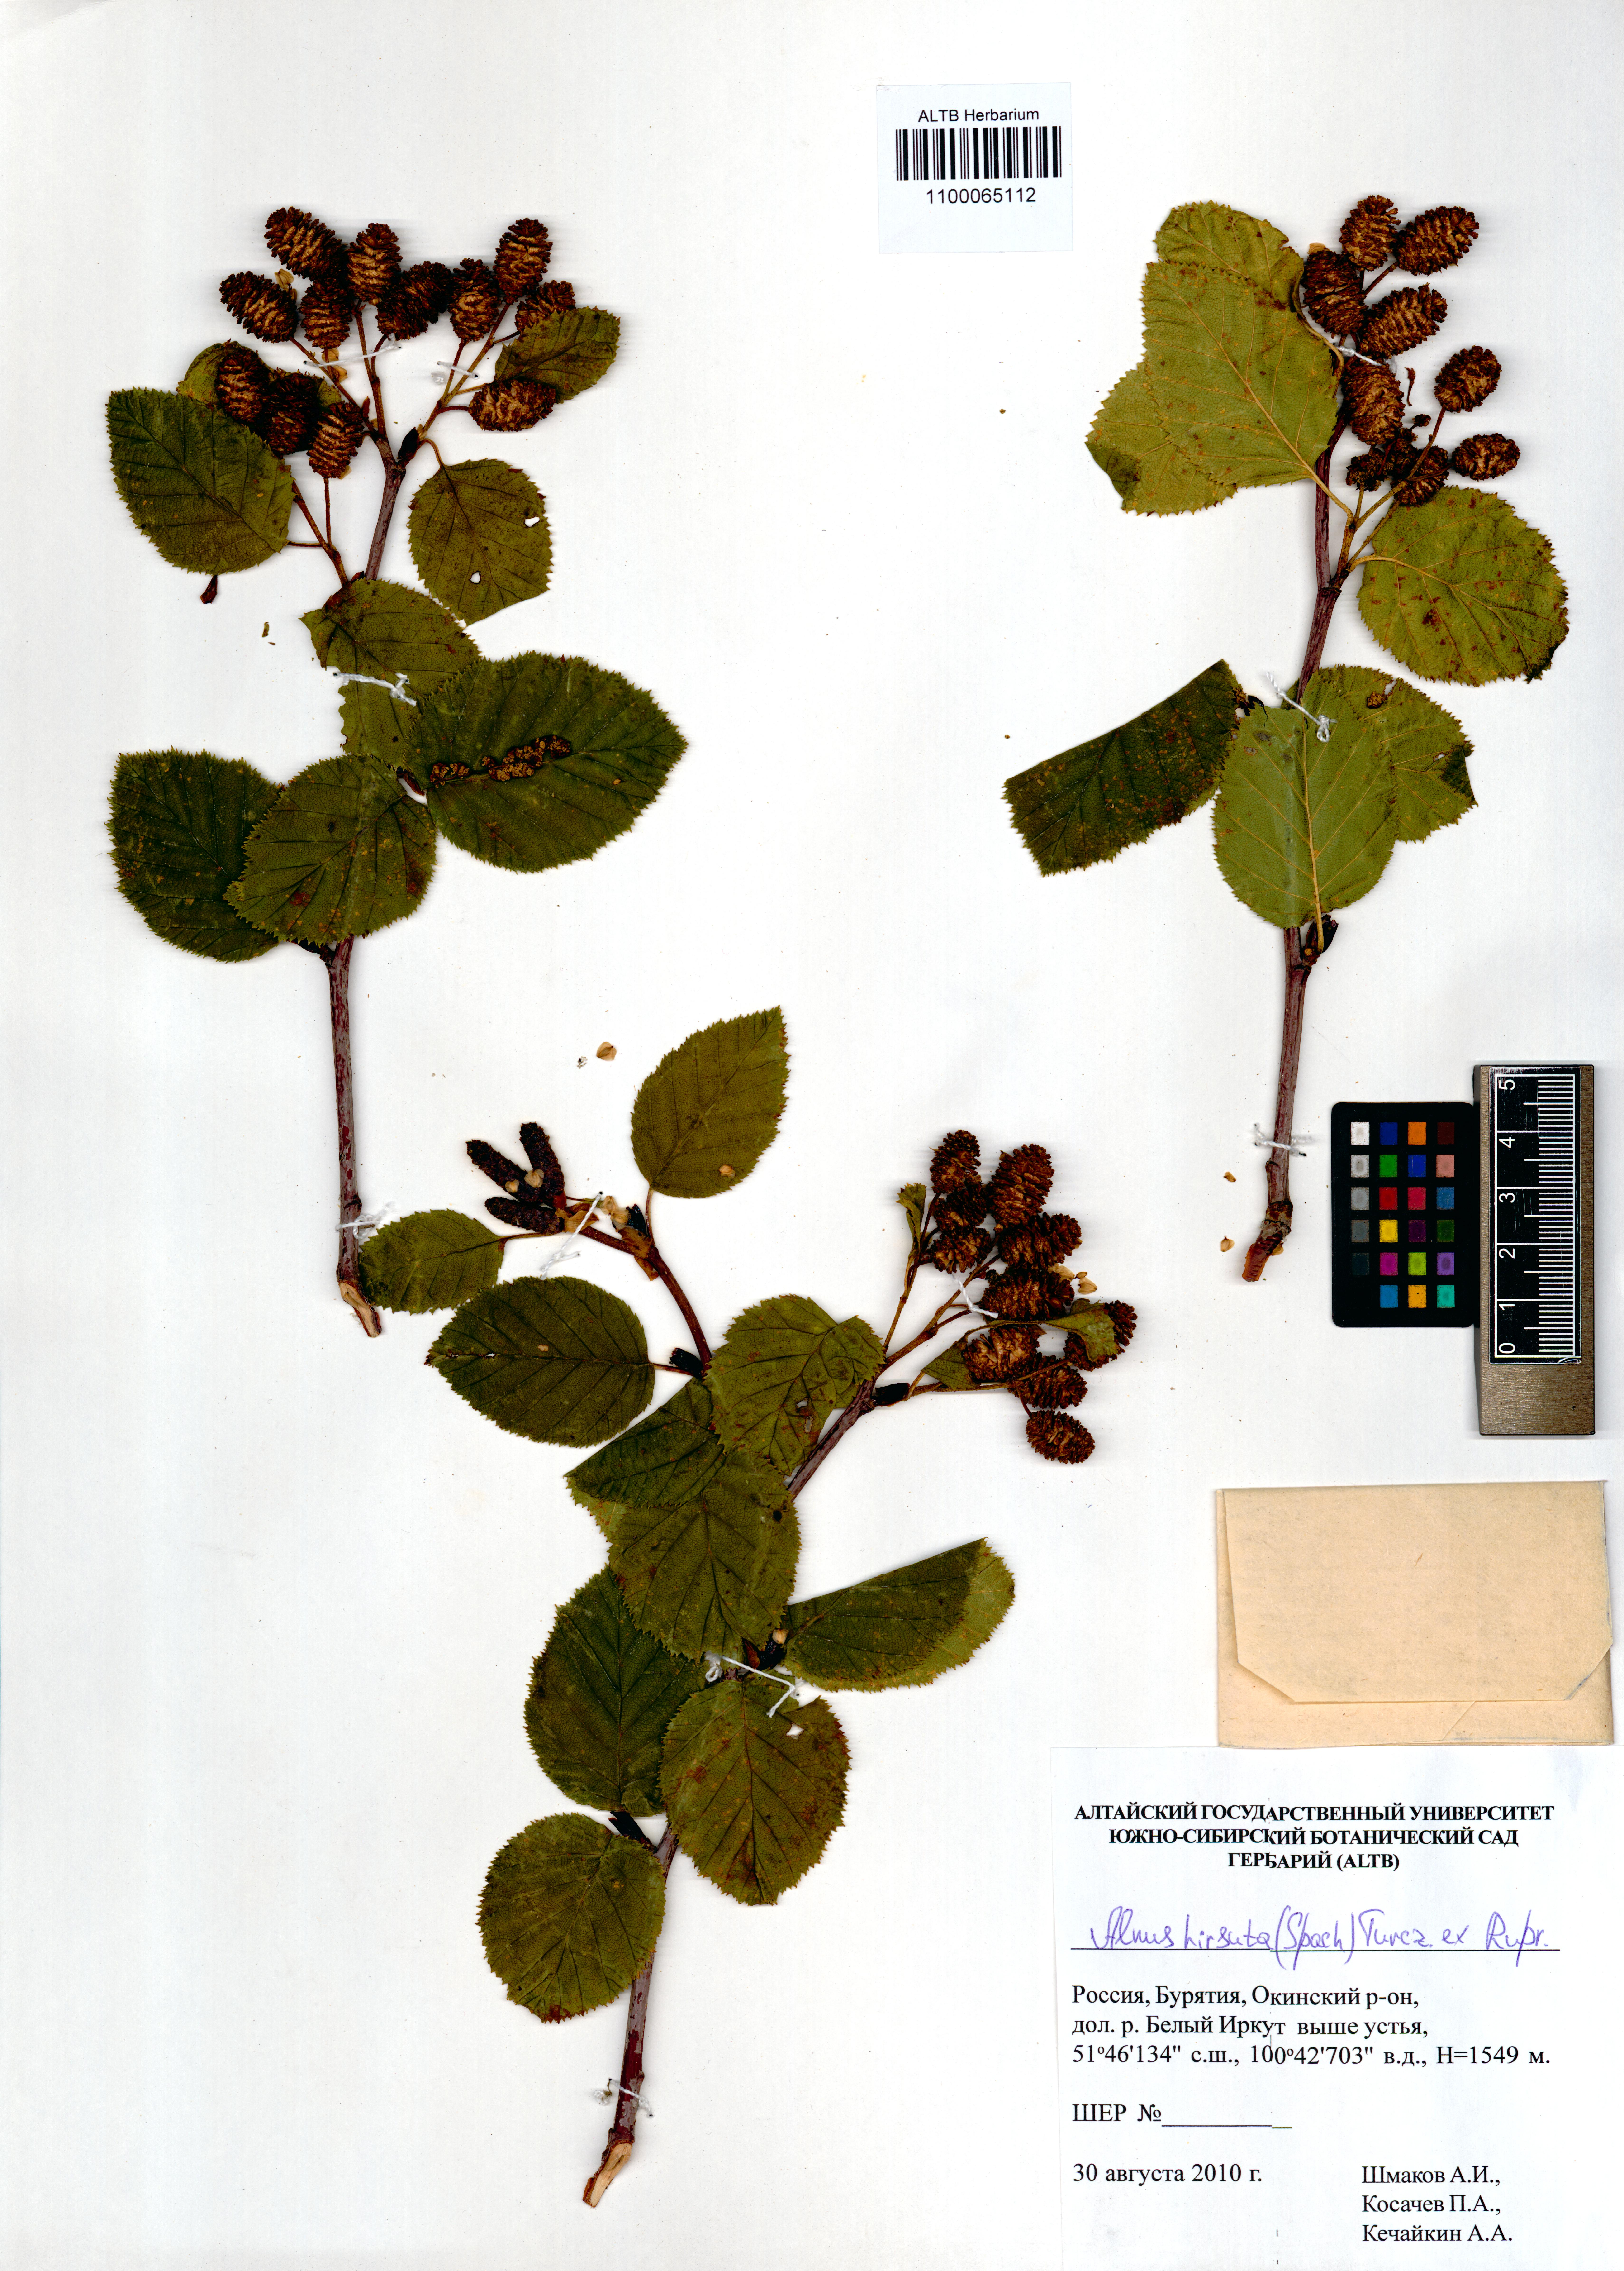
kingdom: Plantae
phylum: Tracheophyta
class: Magnoliopsida
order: Fagales
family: Betulaceae
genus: Alnus
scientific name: Alnus hirsuta
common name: Manchurian alder
